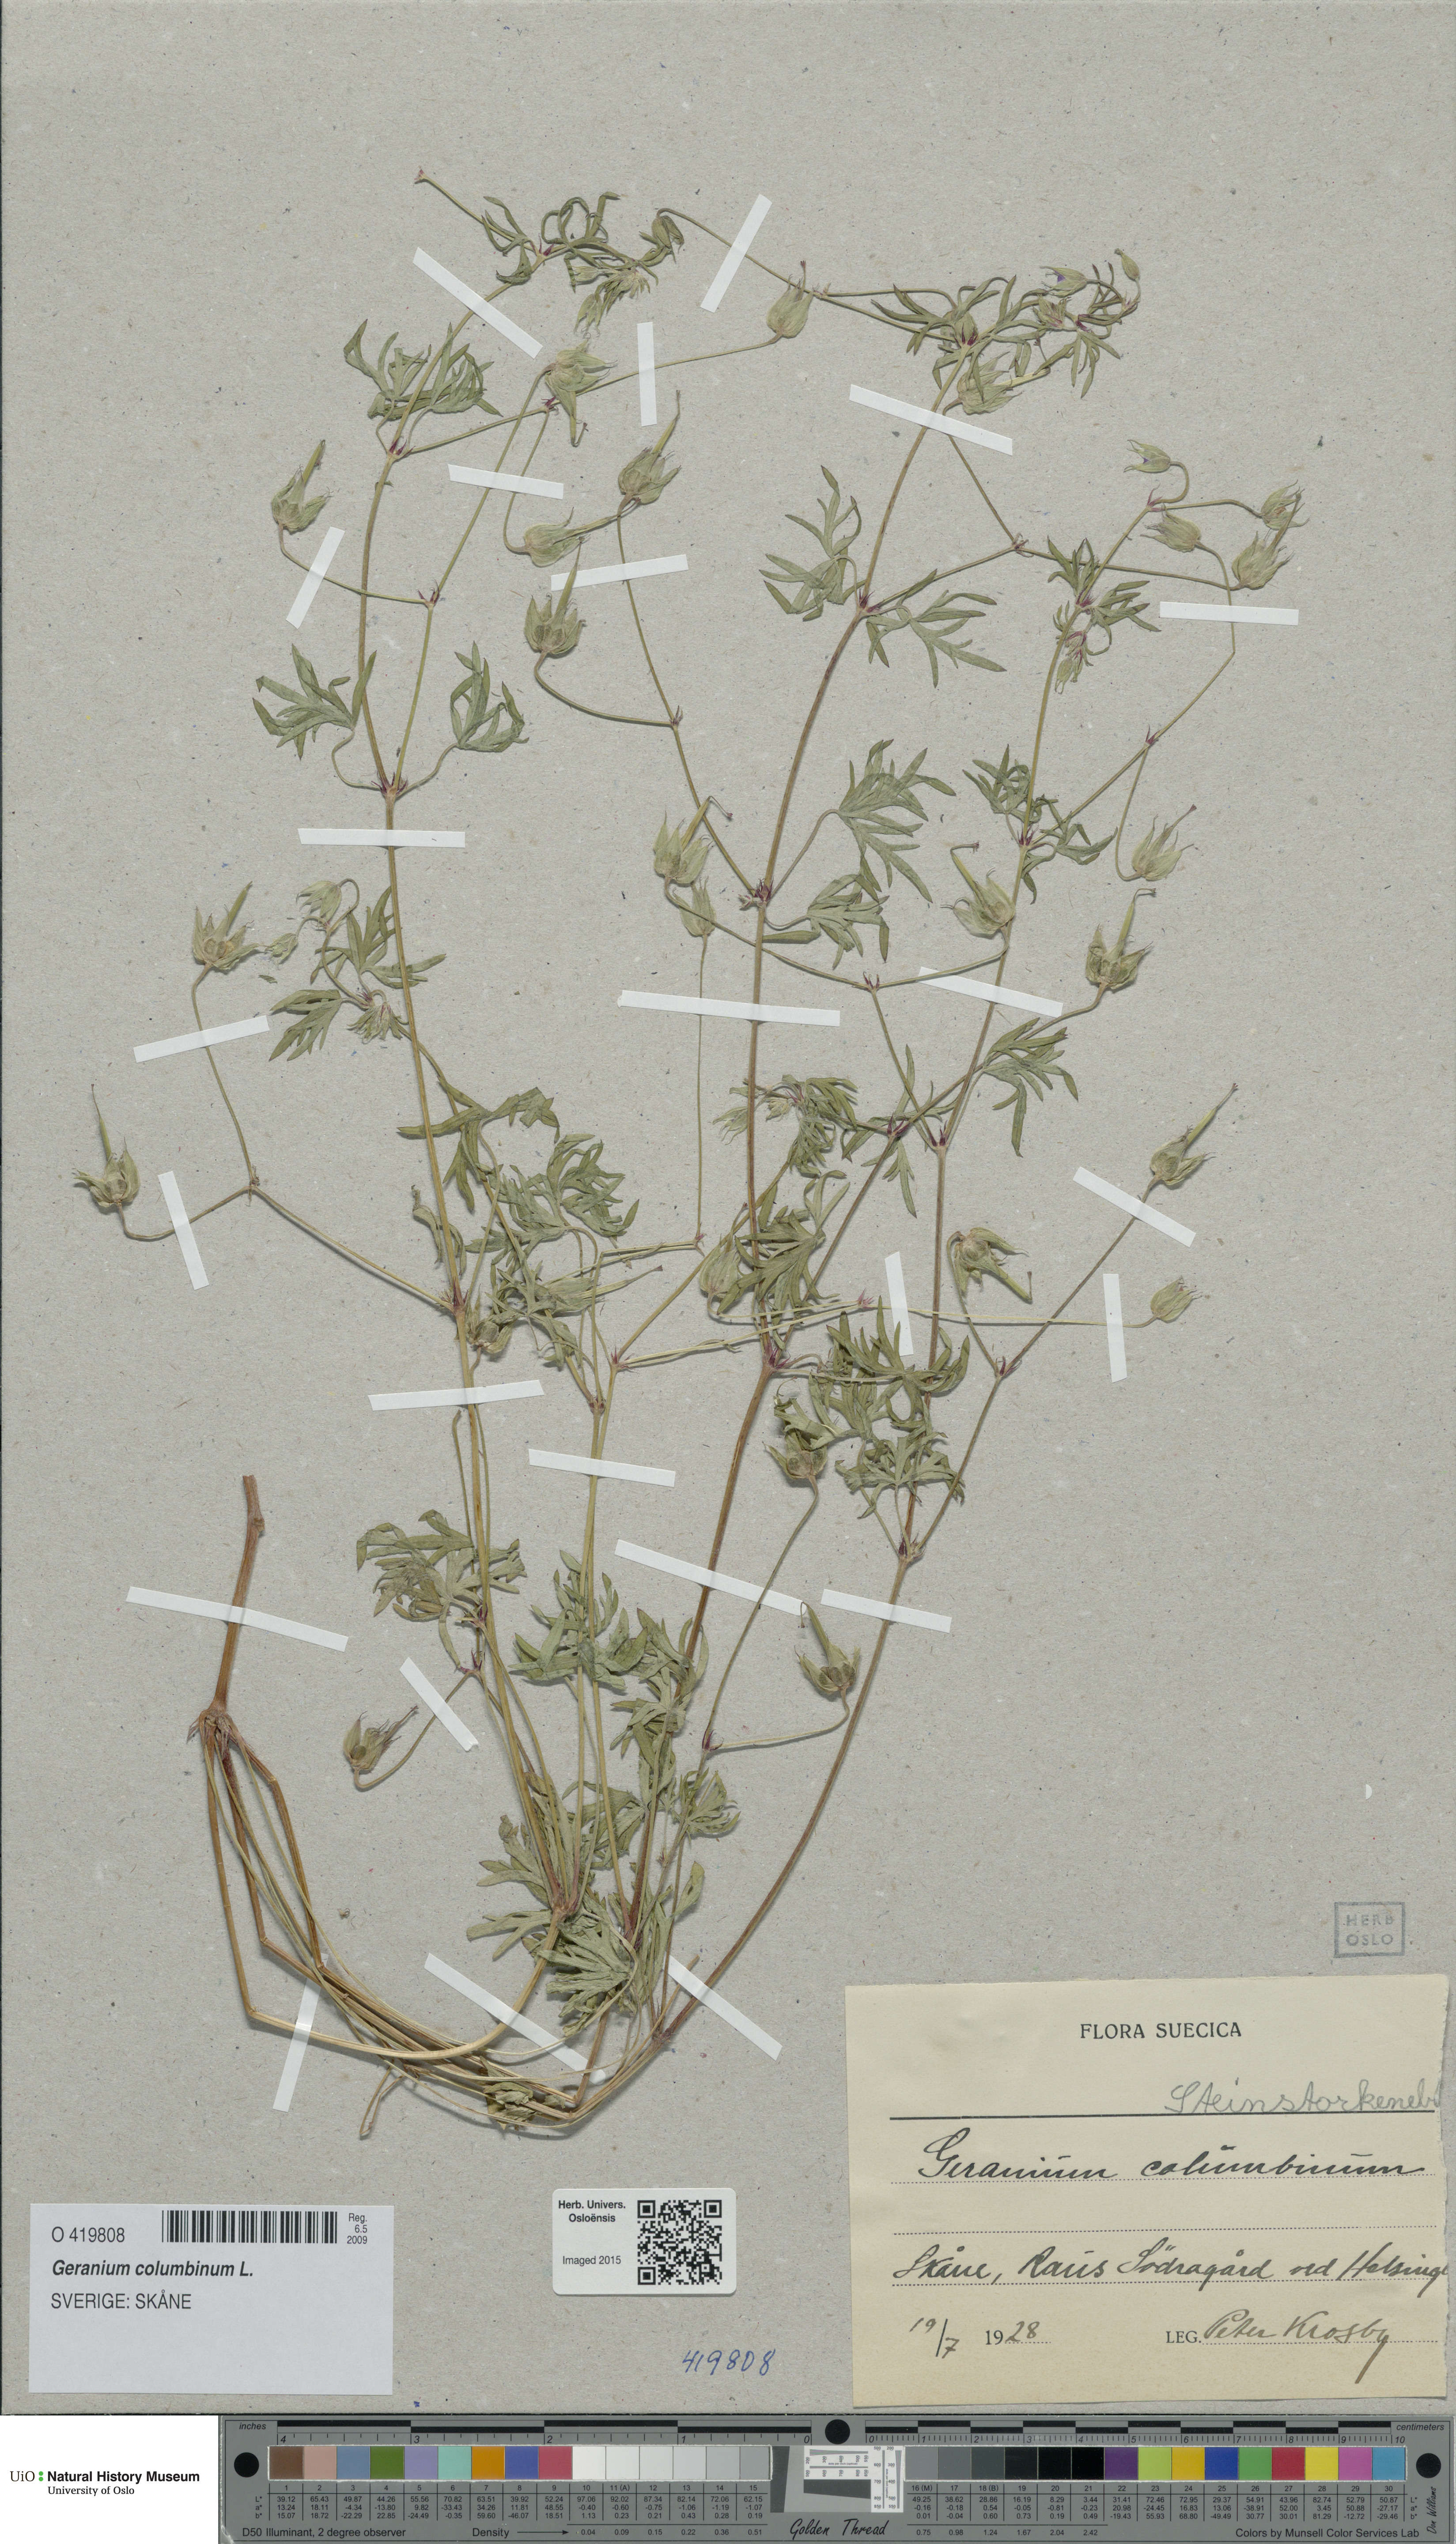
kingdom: Plantae
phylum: Tracheophyta
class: Magnoliopsida
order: Geraniales
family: Geraniaceae
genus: Geranium
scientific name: Geranium columbinum
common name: Long-stalked crane's-bill
